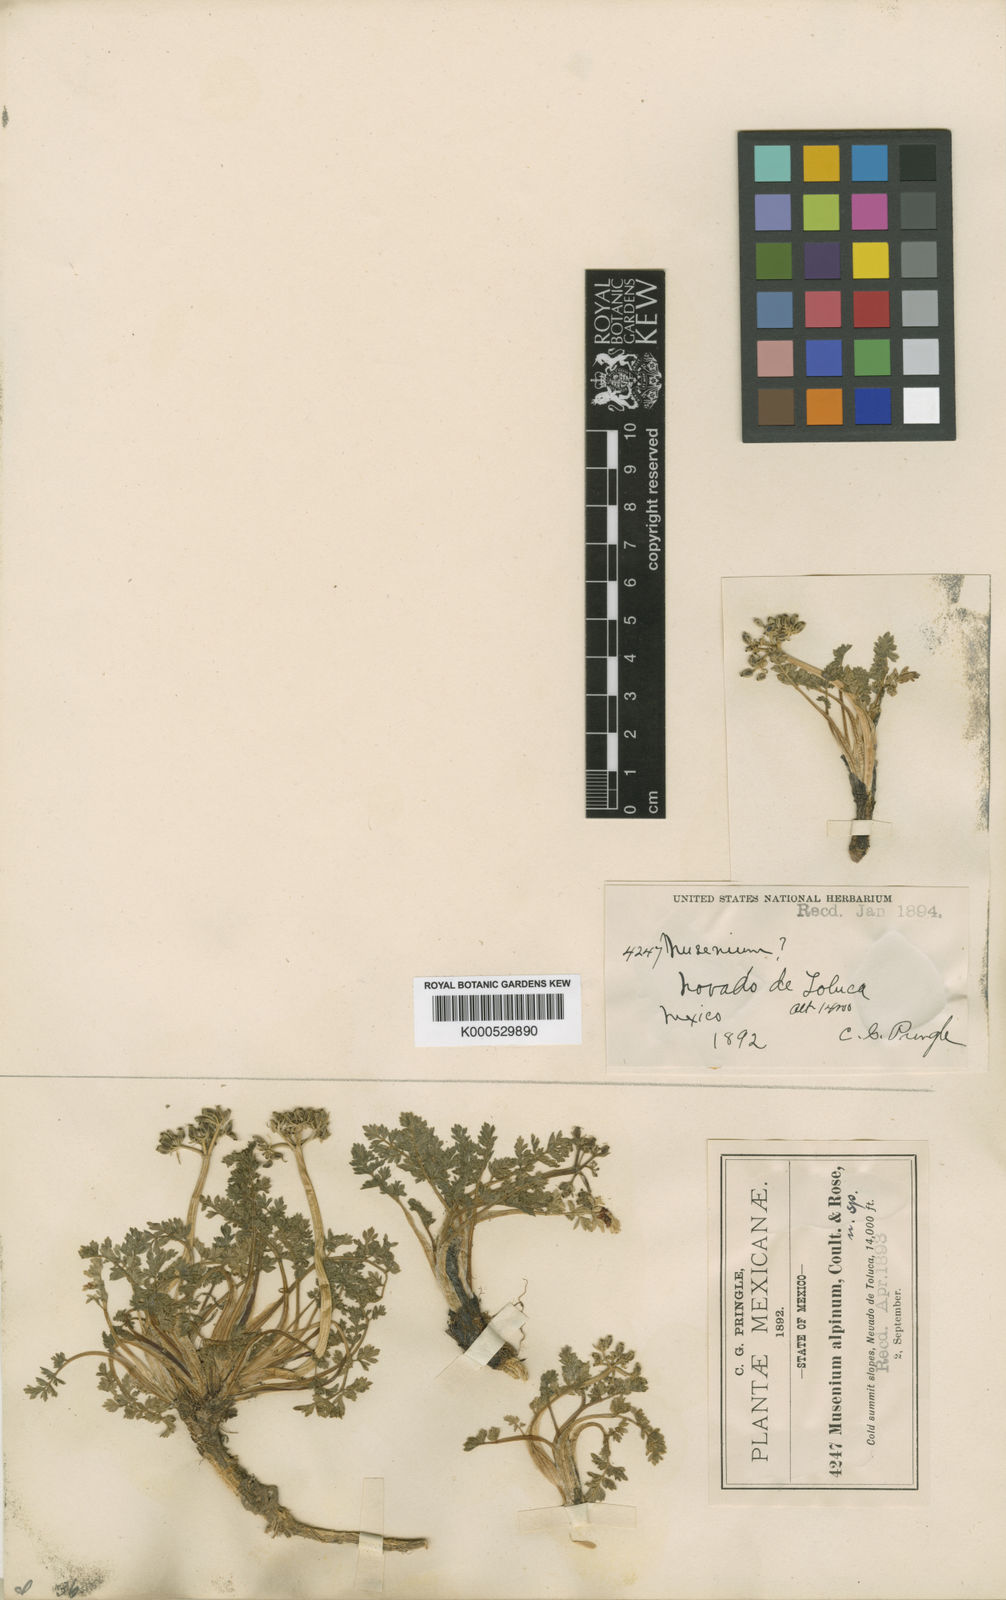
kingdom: Plantae
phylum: Tracheophyta
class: Magnoliopsida
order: Apiales
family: Apiaceae
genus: Tauschia
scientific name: Tauschia alpina
